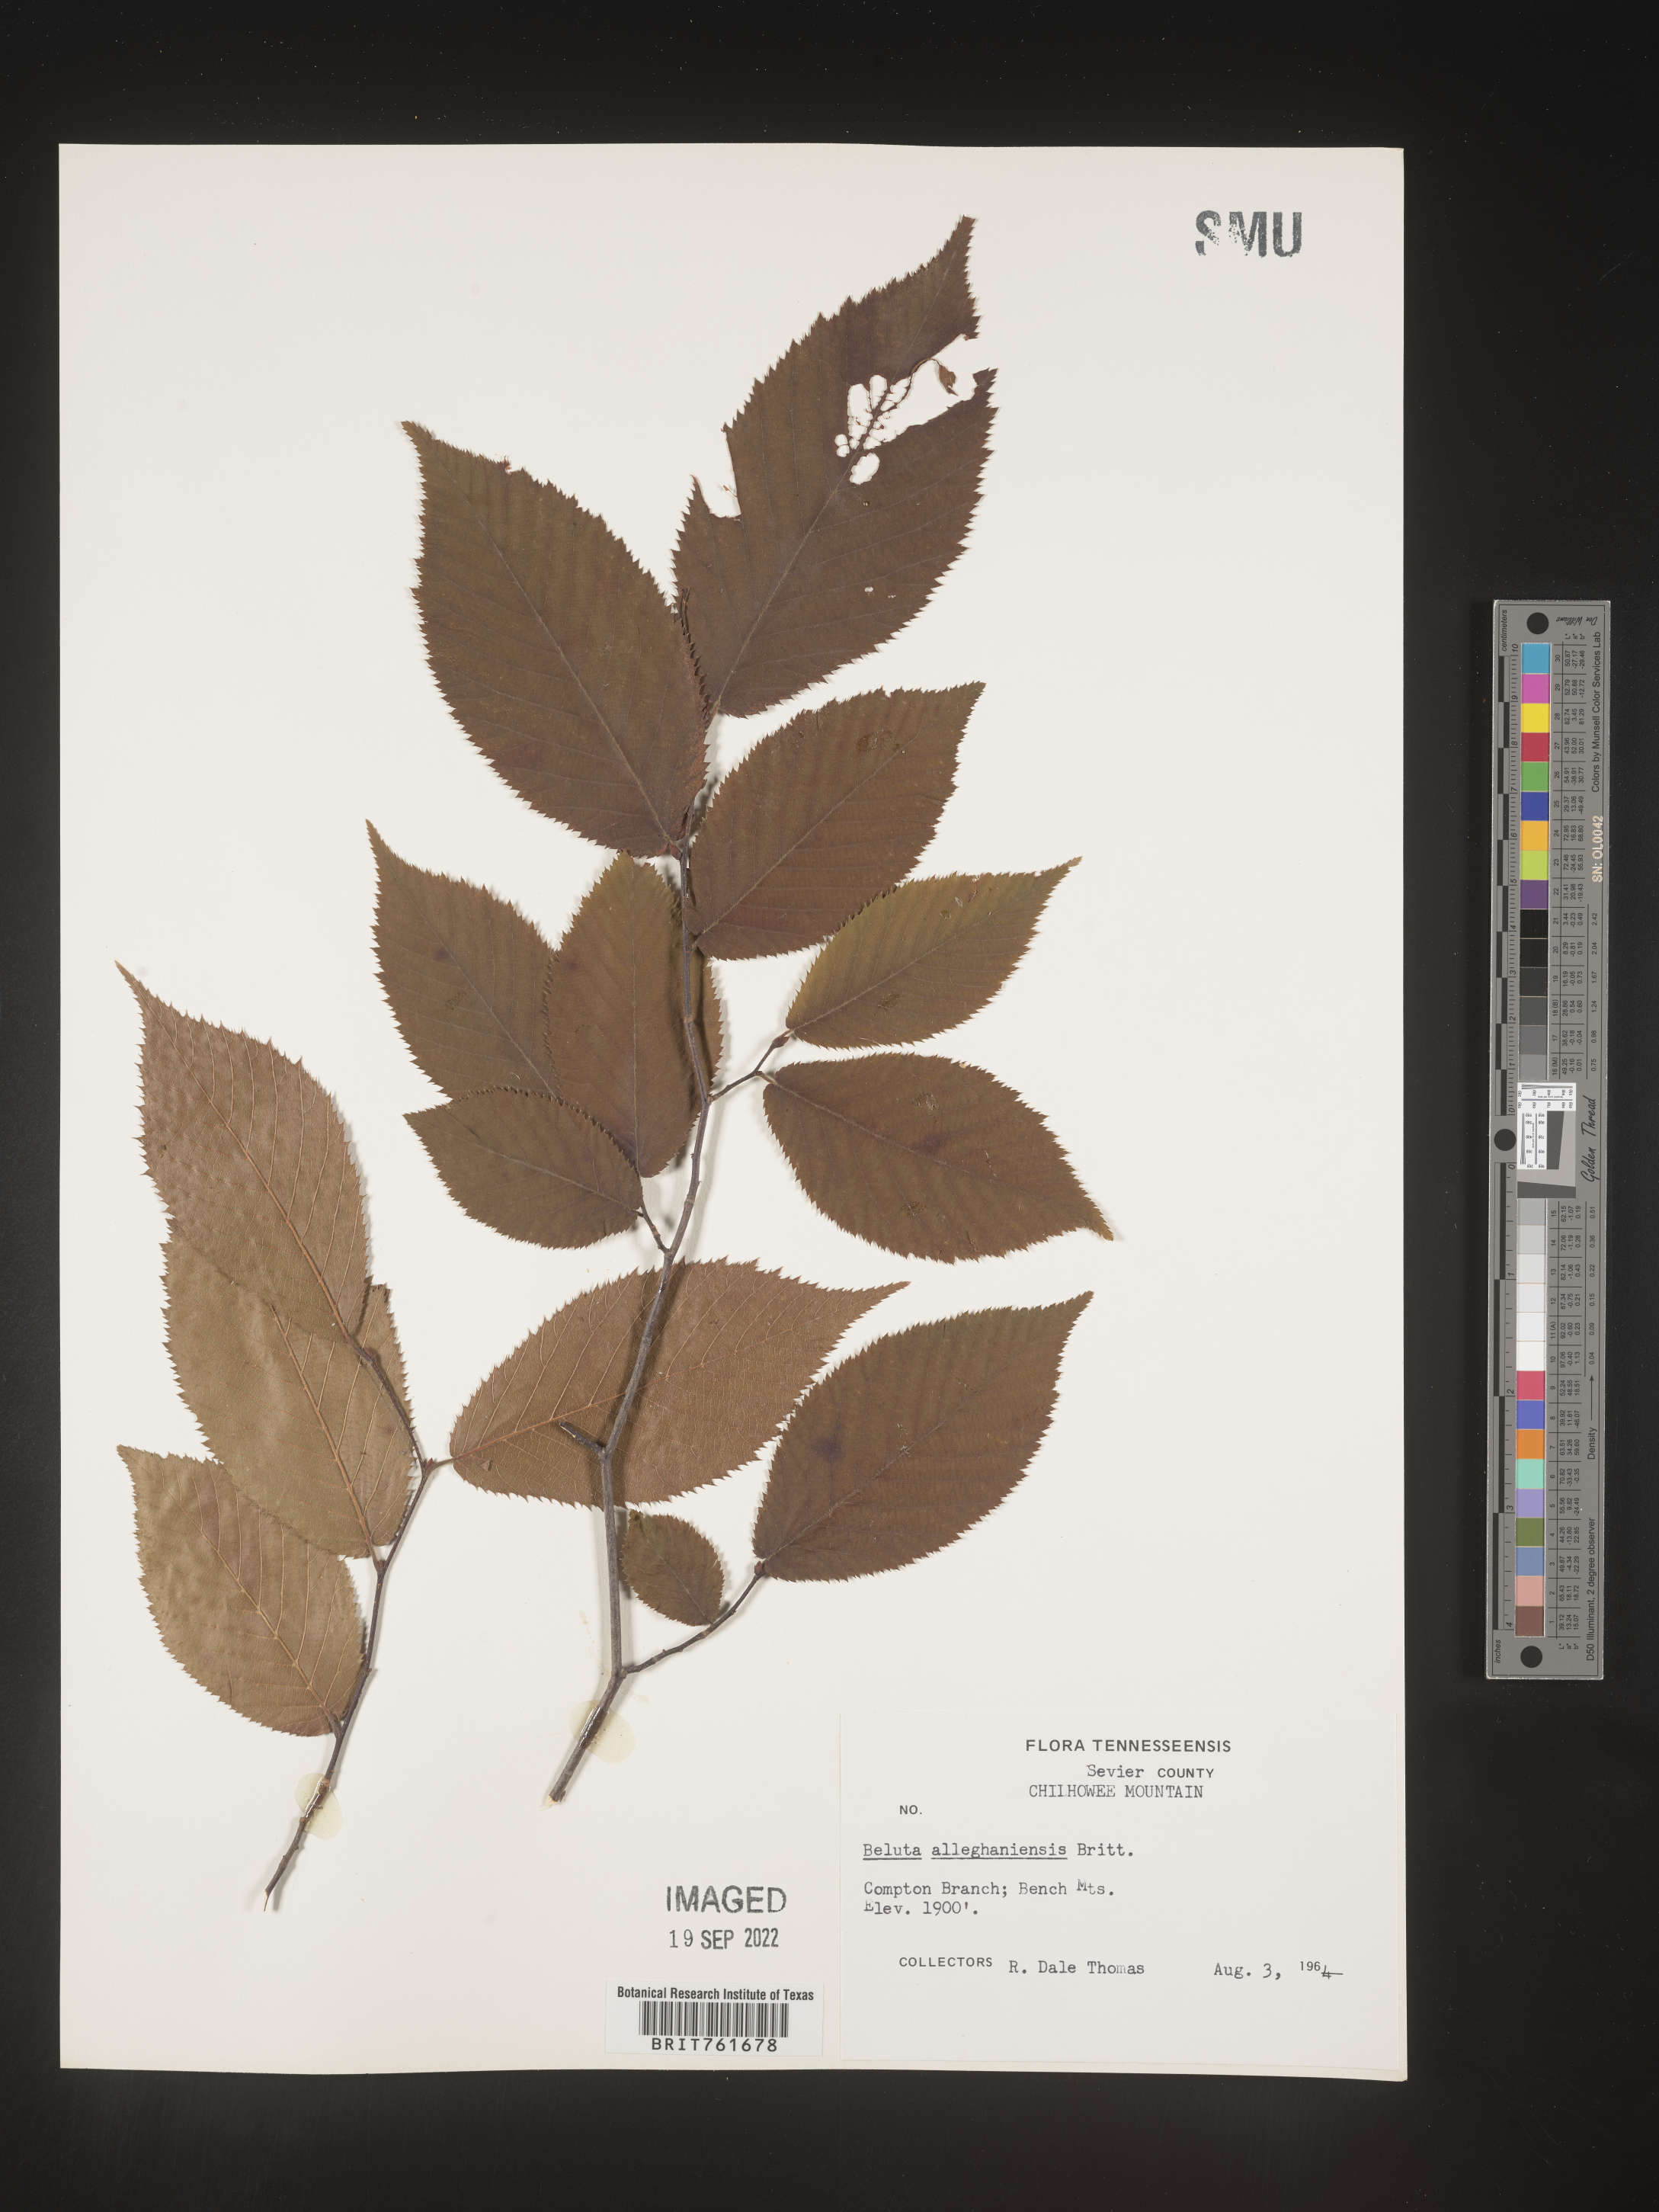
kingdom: Plantae
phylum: Tracheophyta
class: Magnoliopsida
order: Fagales
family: Betulaceae
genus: Betula
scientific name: Betula alleghaniensis
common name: Yellow birch
